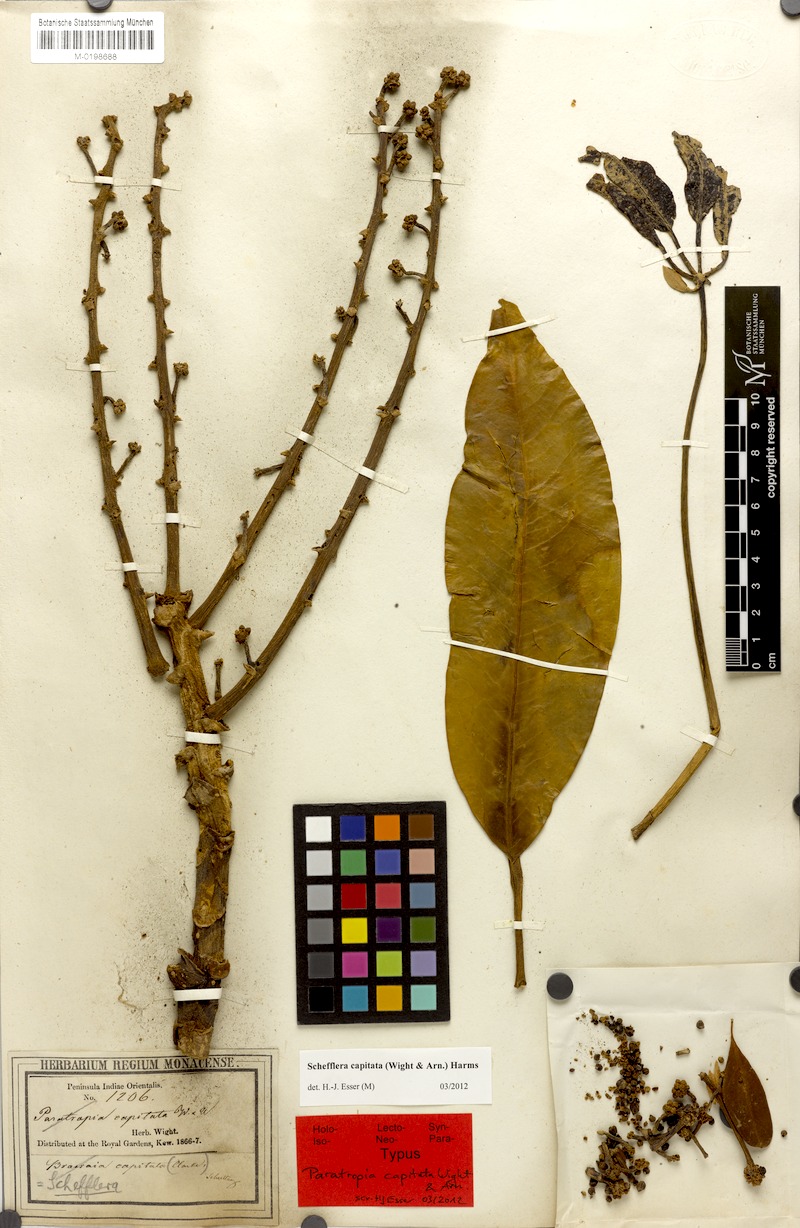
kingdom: Plantae
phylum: Tracheophyta
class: Magnoliopsida
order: Apiales
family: Araliaceae
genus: Heptapleurum
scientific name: Heptapleurum capitatum
